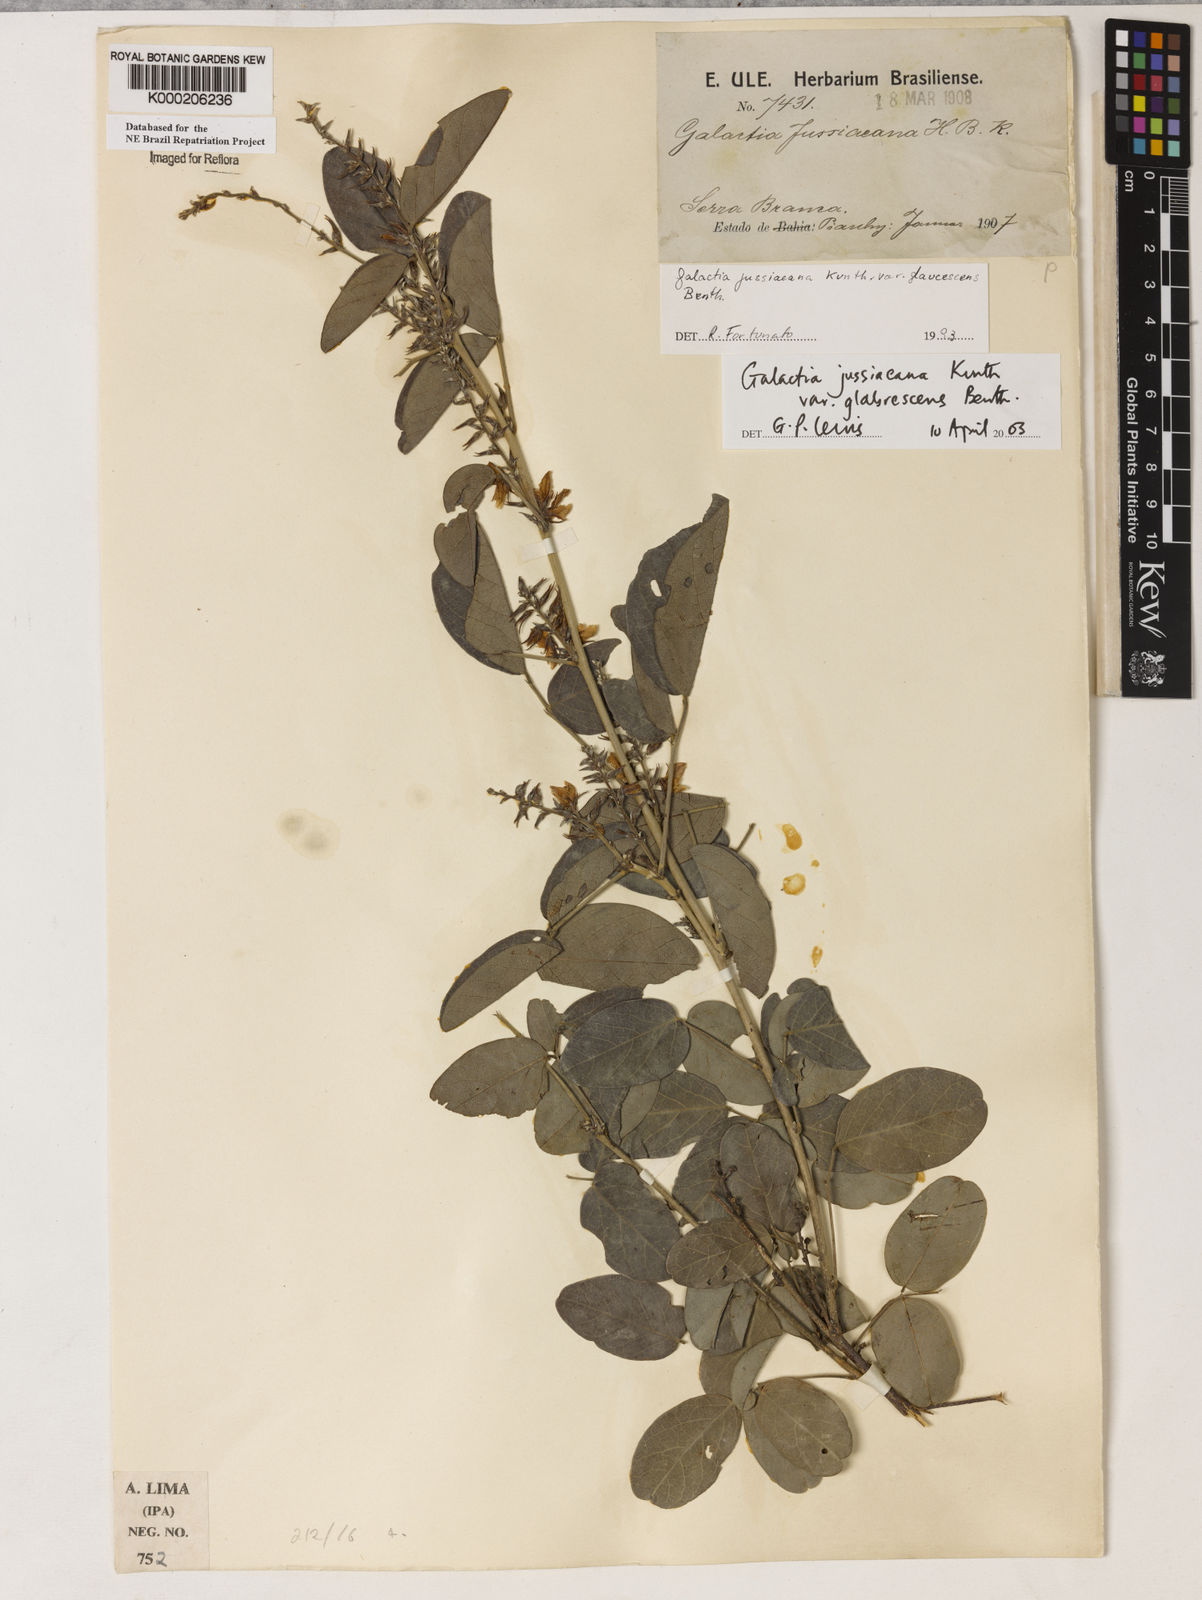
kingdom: Plantae
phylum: Tracheophyta
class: Magnoliopsida
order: Fabales
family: Fabaceae
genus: Galactia
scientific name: Galactia jussiaeana
